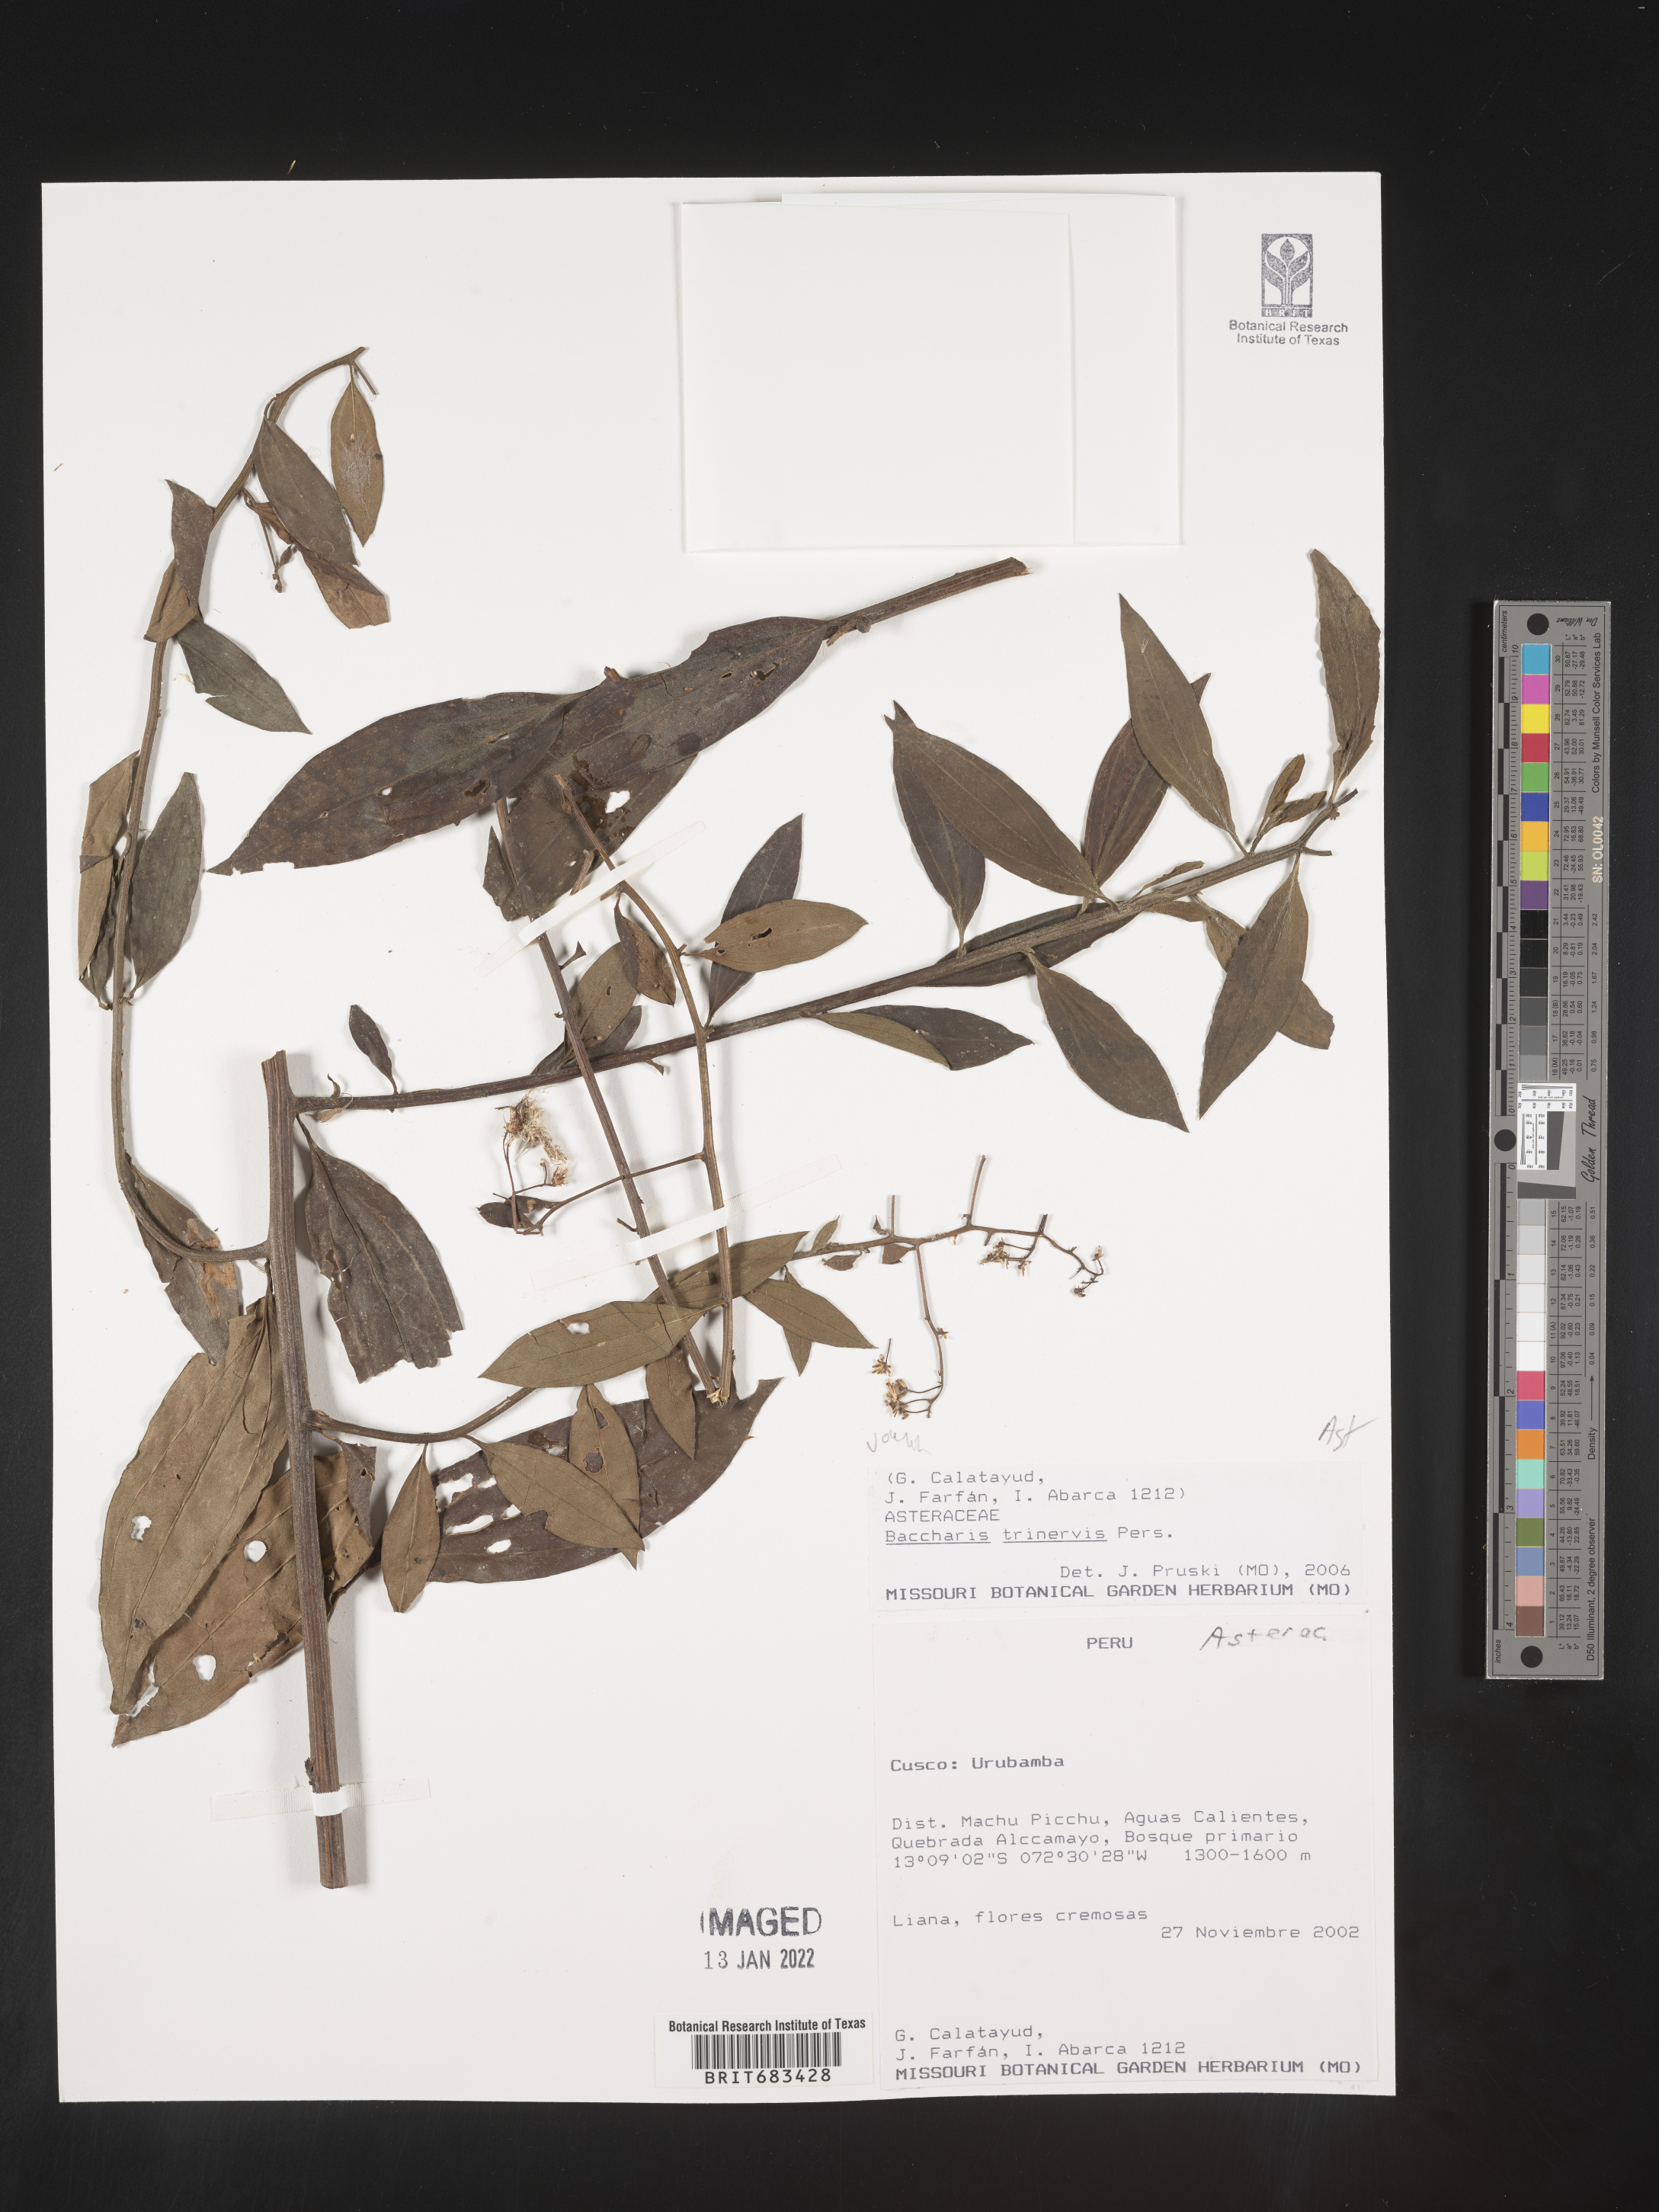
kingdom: Plantae
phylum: Tracheophyta
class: Magnoliopsida
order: Asterales
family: Asteraceae
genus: Baccharis
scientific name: Baccharis trinervis
